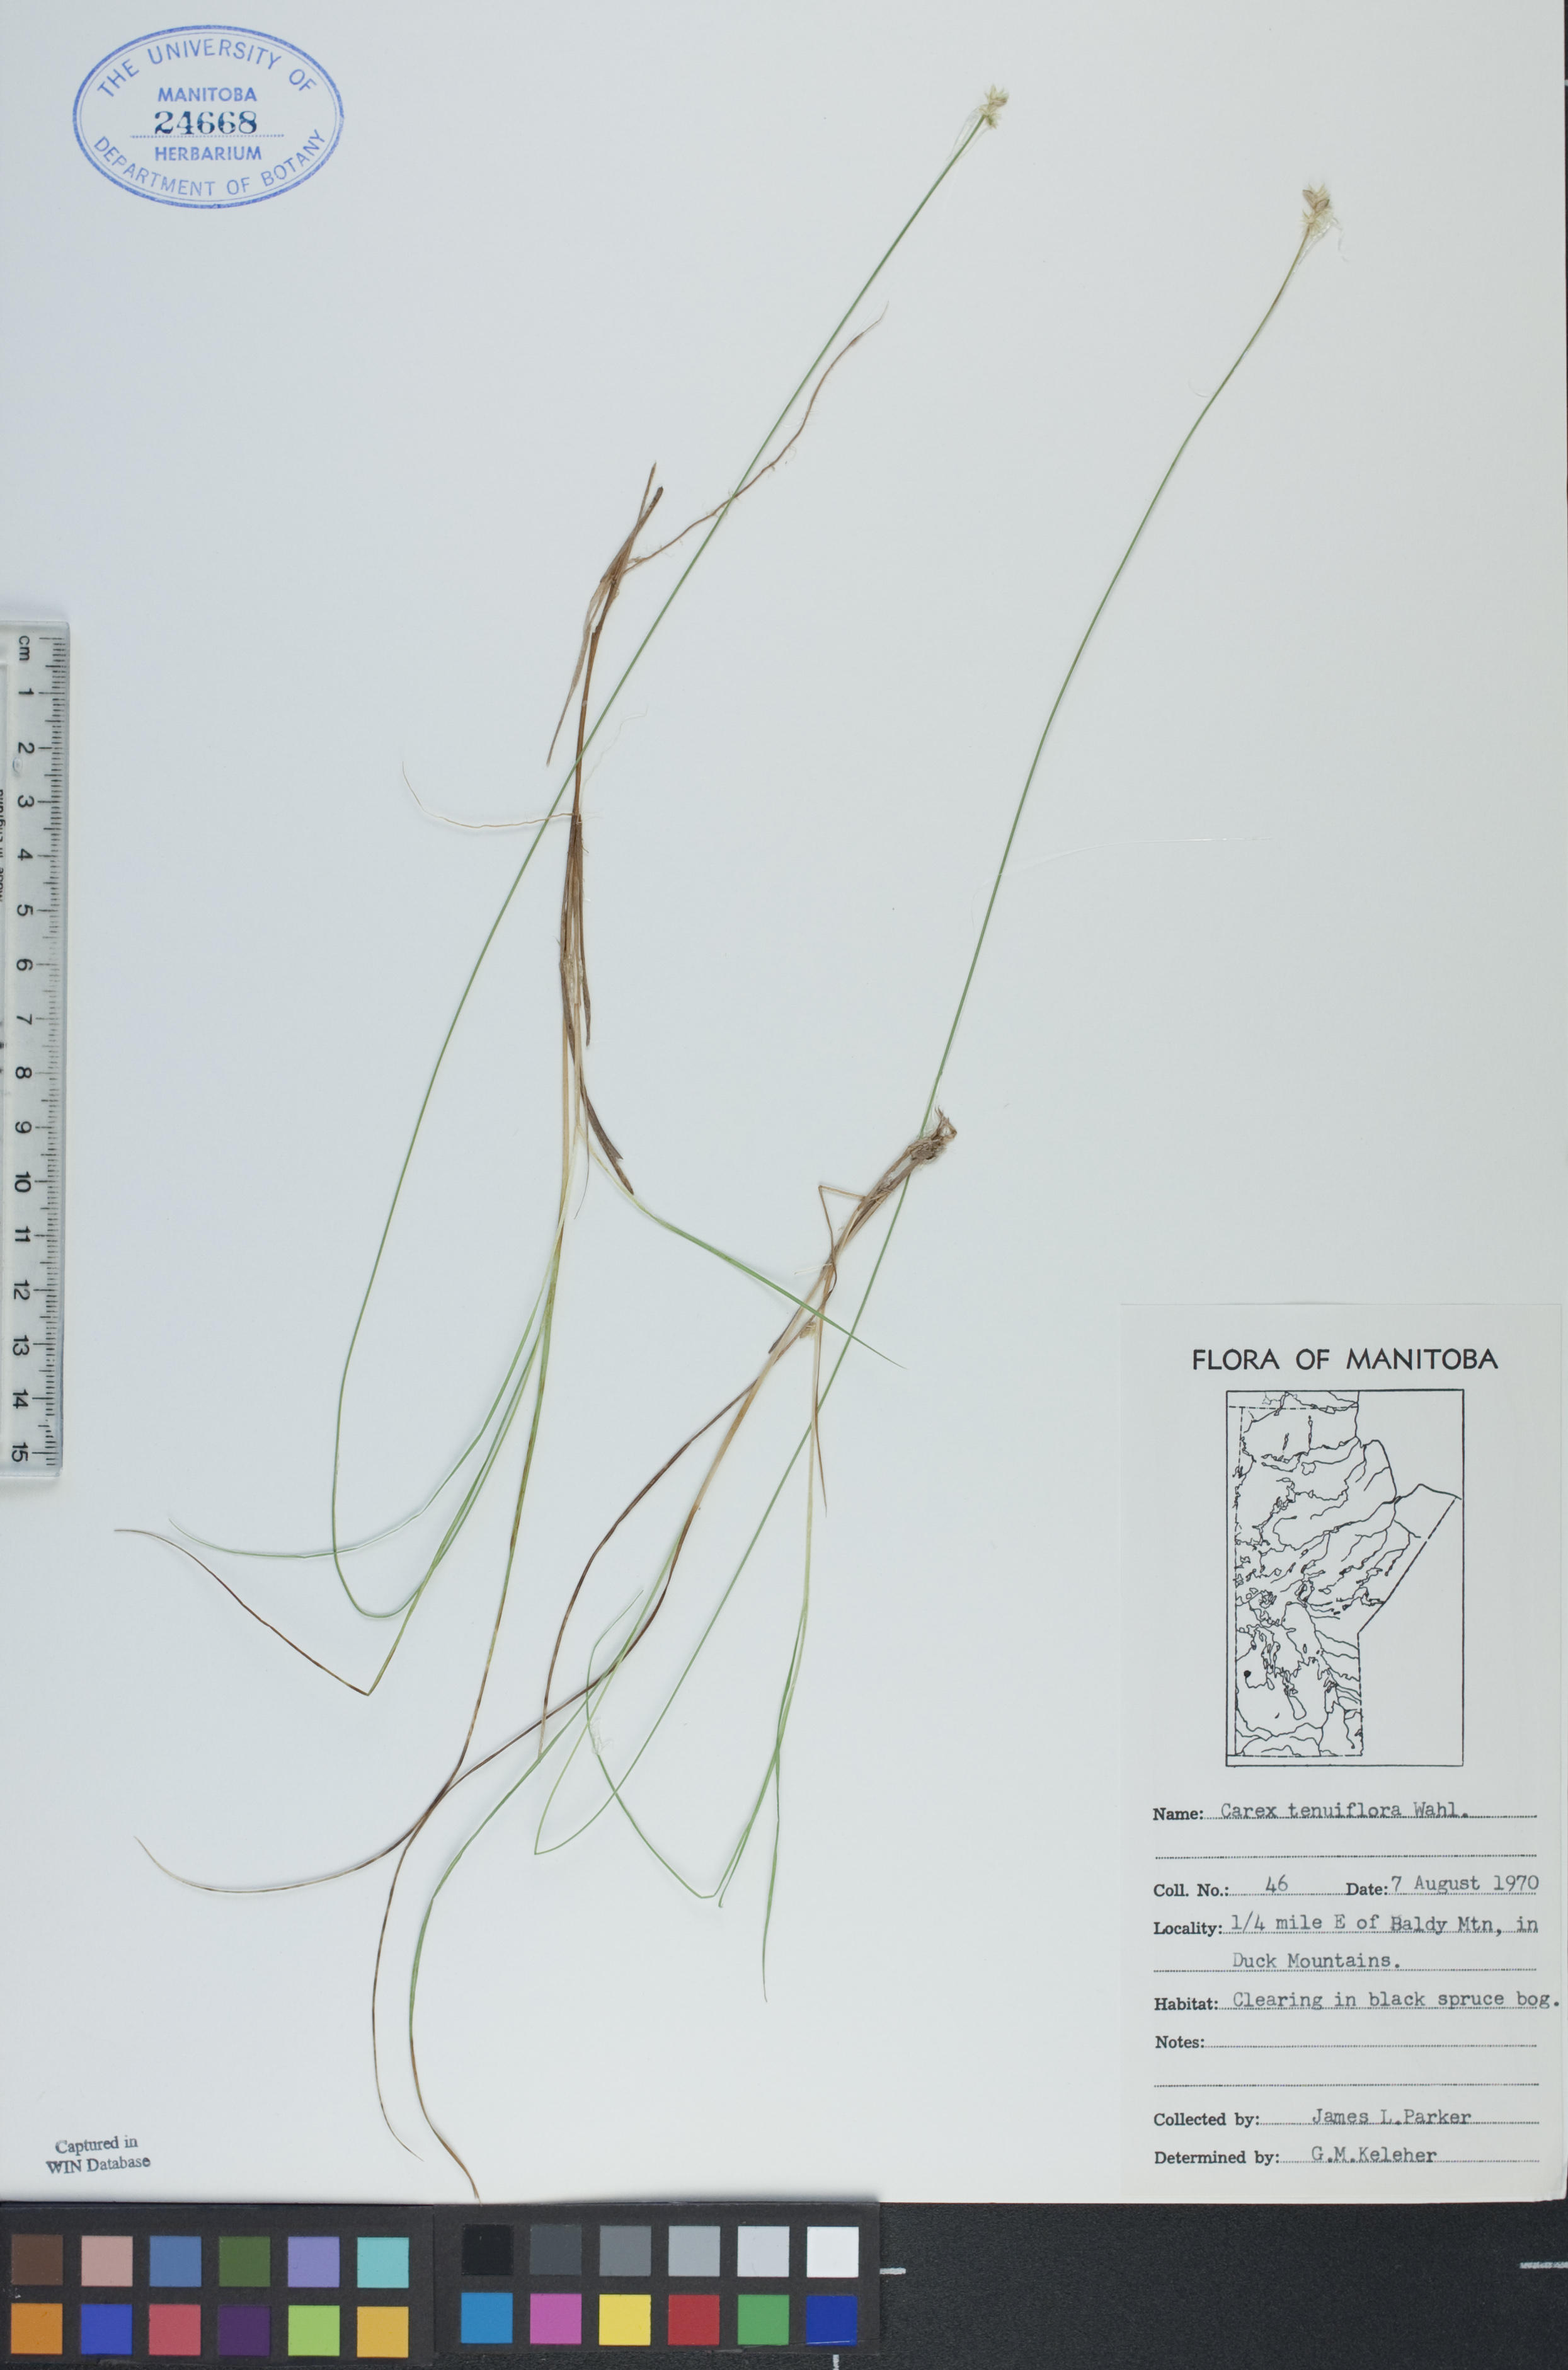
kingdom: Plantae
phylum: Tracheophyta
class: Liliopsida
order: Poales
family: Cyperaceae
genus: Carex
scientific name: Carex tenera
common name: Broad-fruited sedge
